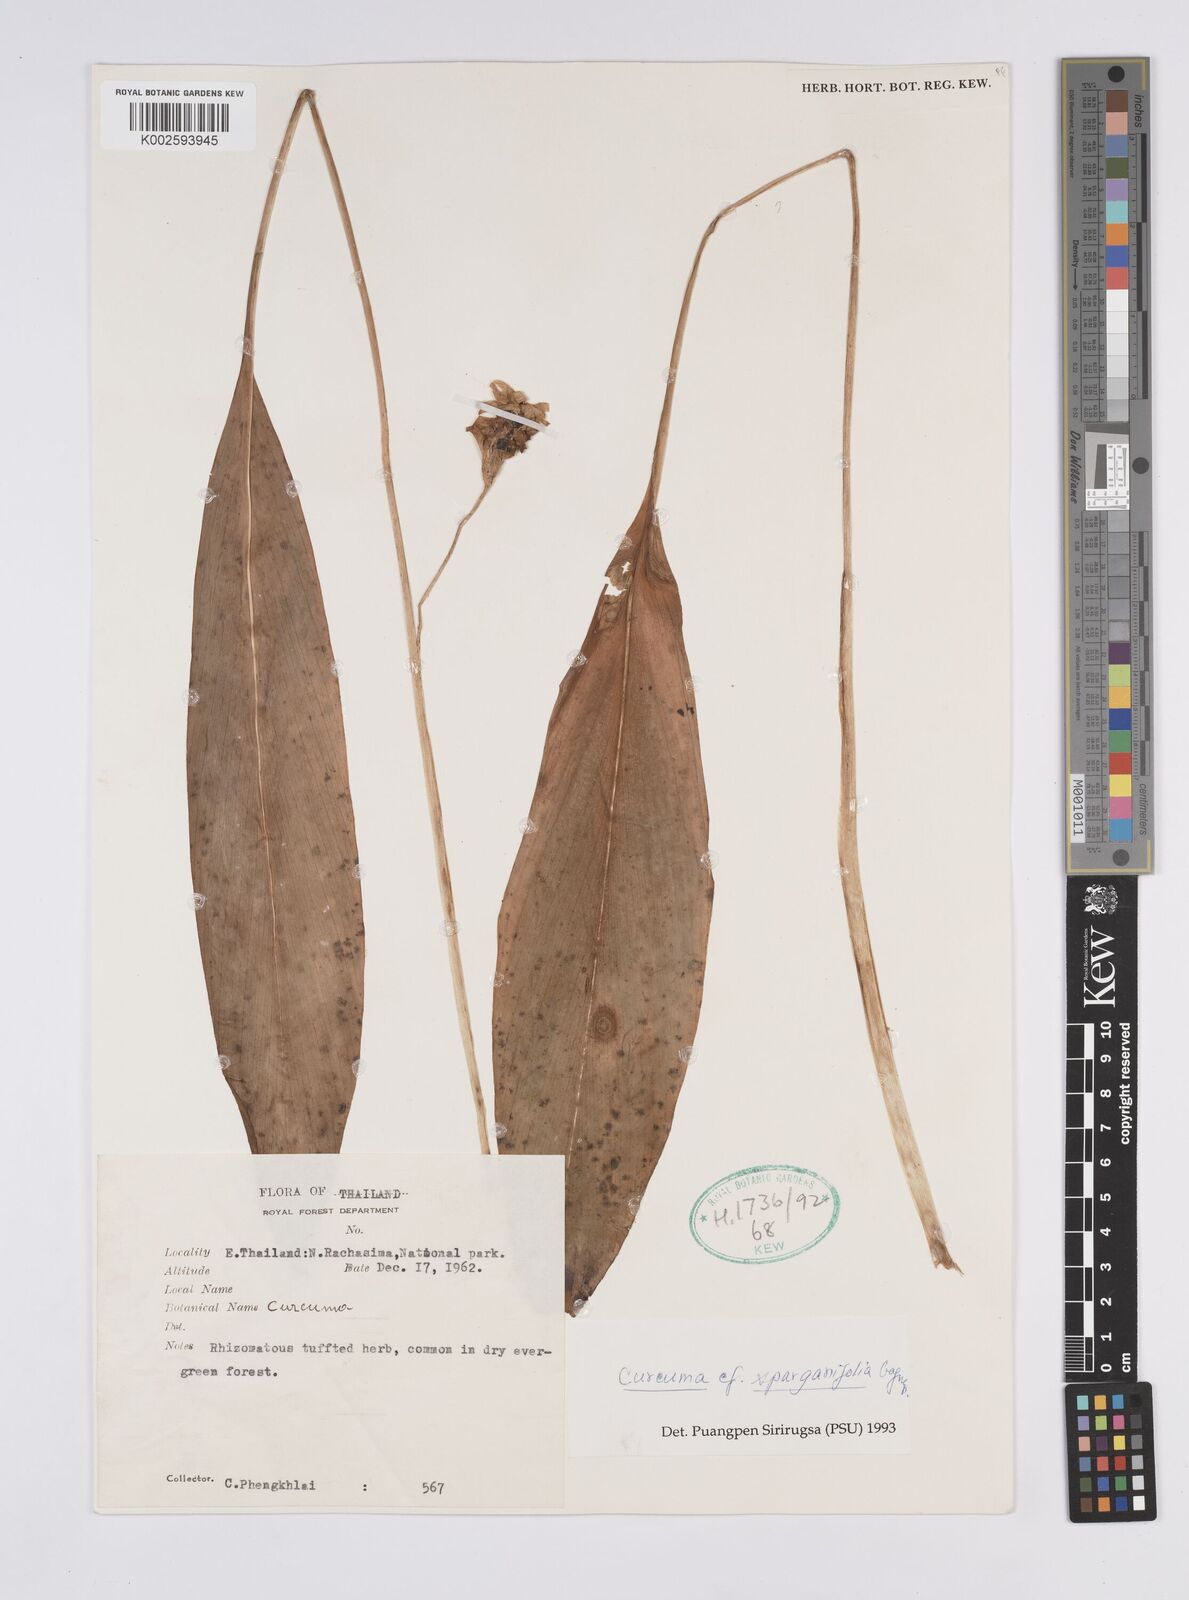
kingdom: Plantae
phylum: Tracheophyta
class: Liliopsida
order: Zingiberales
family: Zingiberaceae
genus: Curcuma
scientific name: Curcuma sparganiifolia
